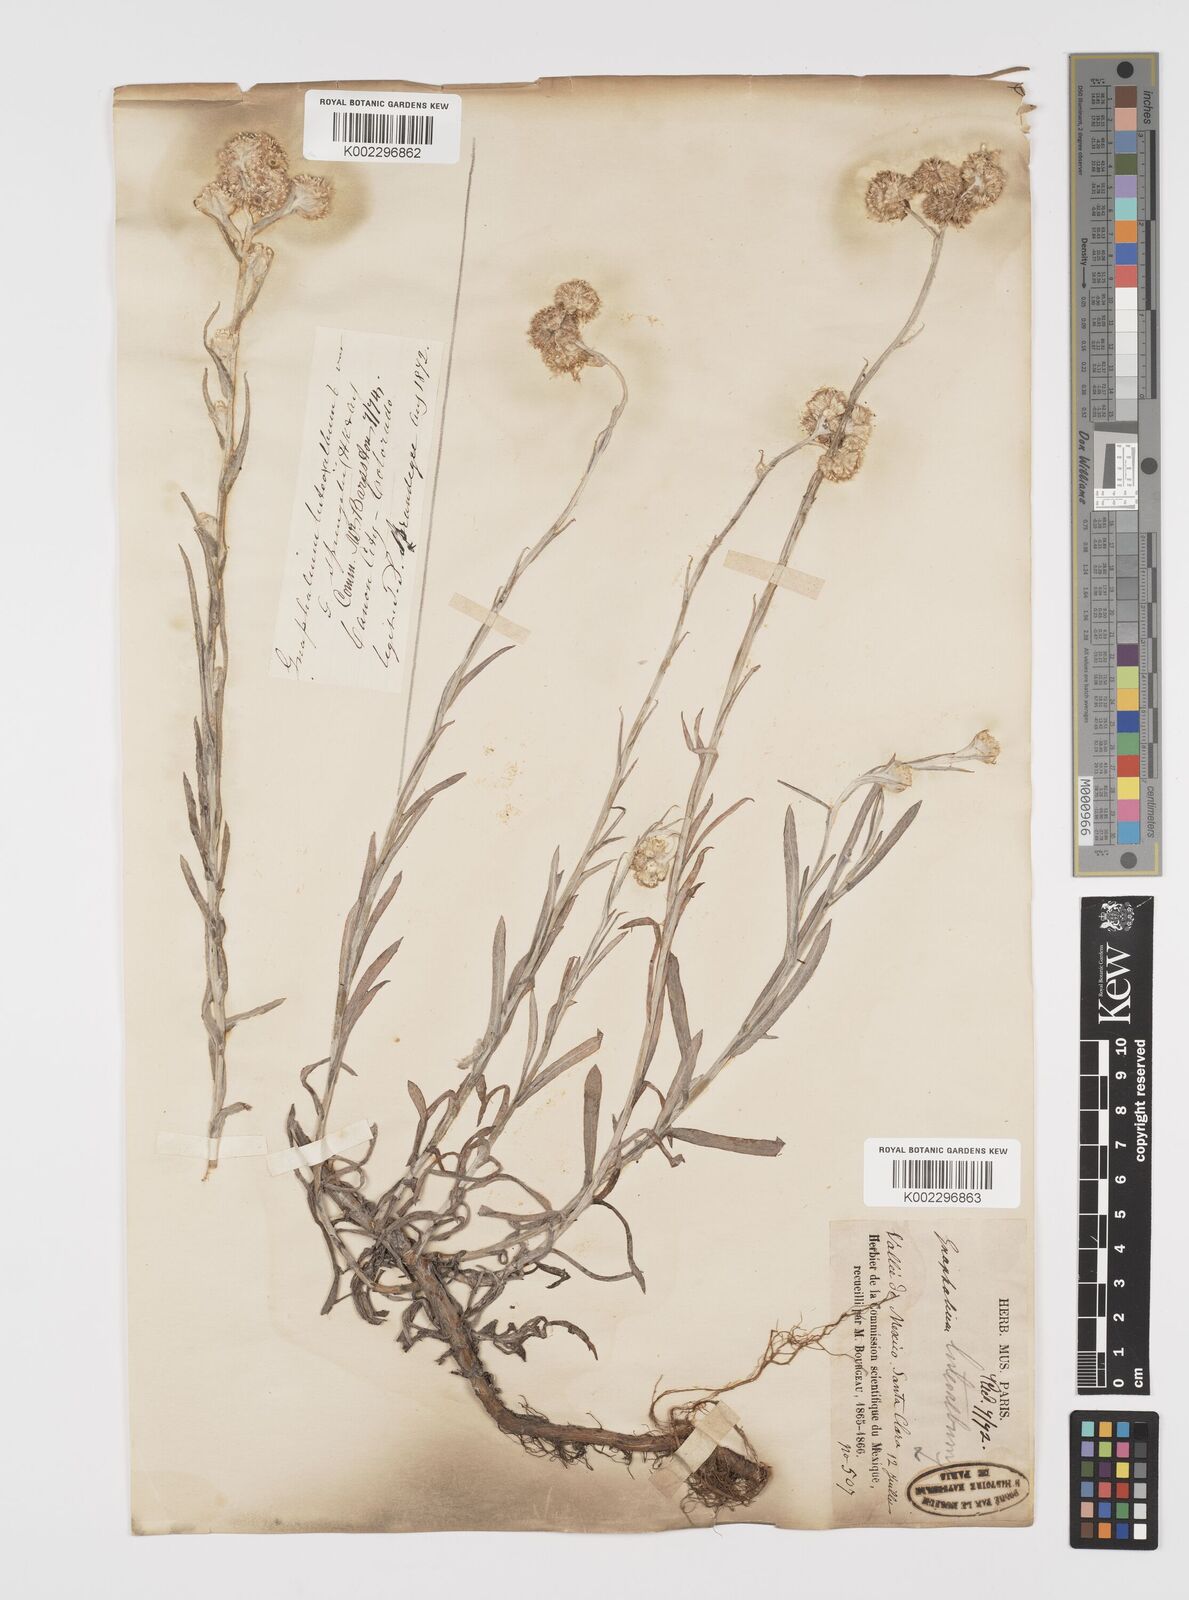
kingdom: Plantae
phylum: Tracheophyta
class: Magnoliopsida
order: Asterales
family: Asteraceae
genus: Helichrysum
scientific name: Helichrysum luteoalbum
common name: Daisy
